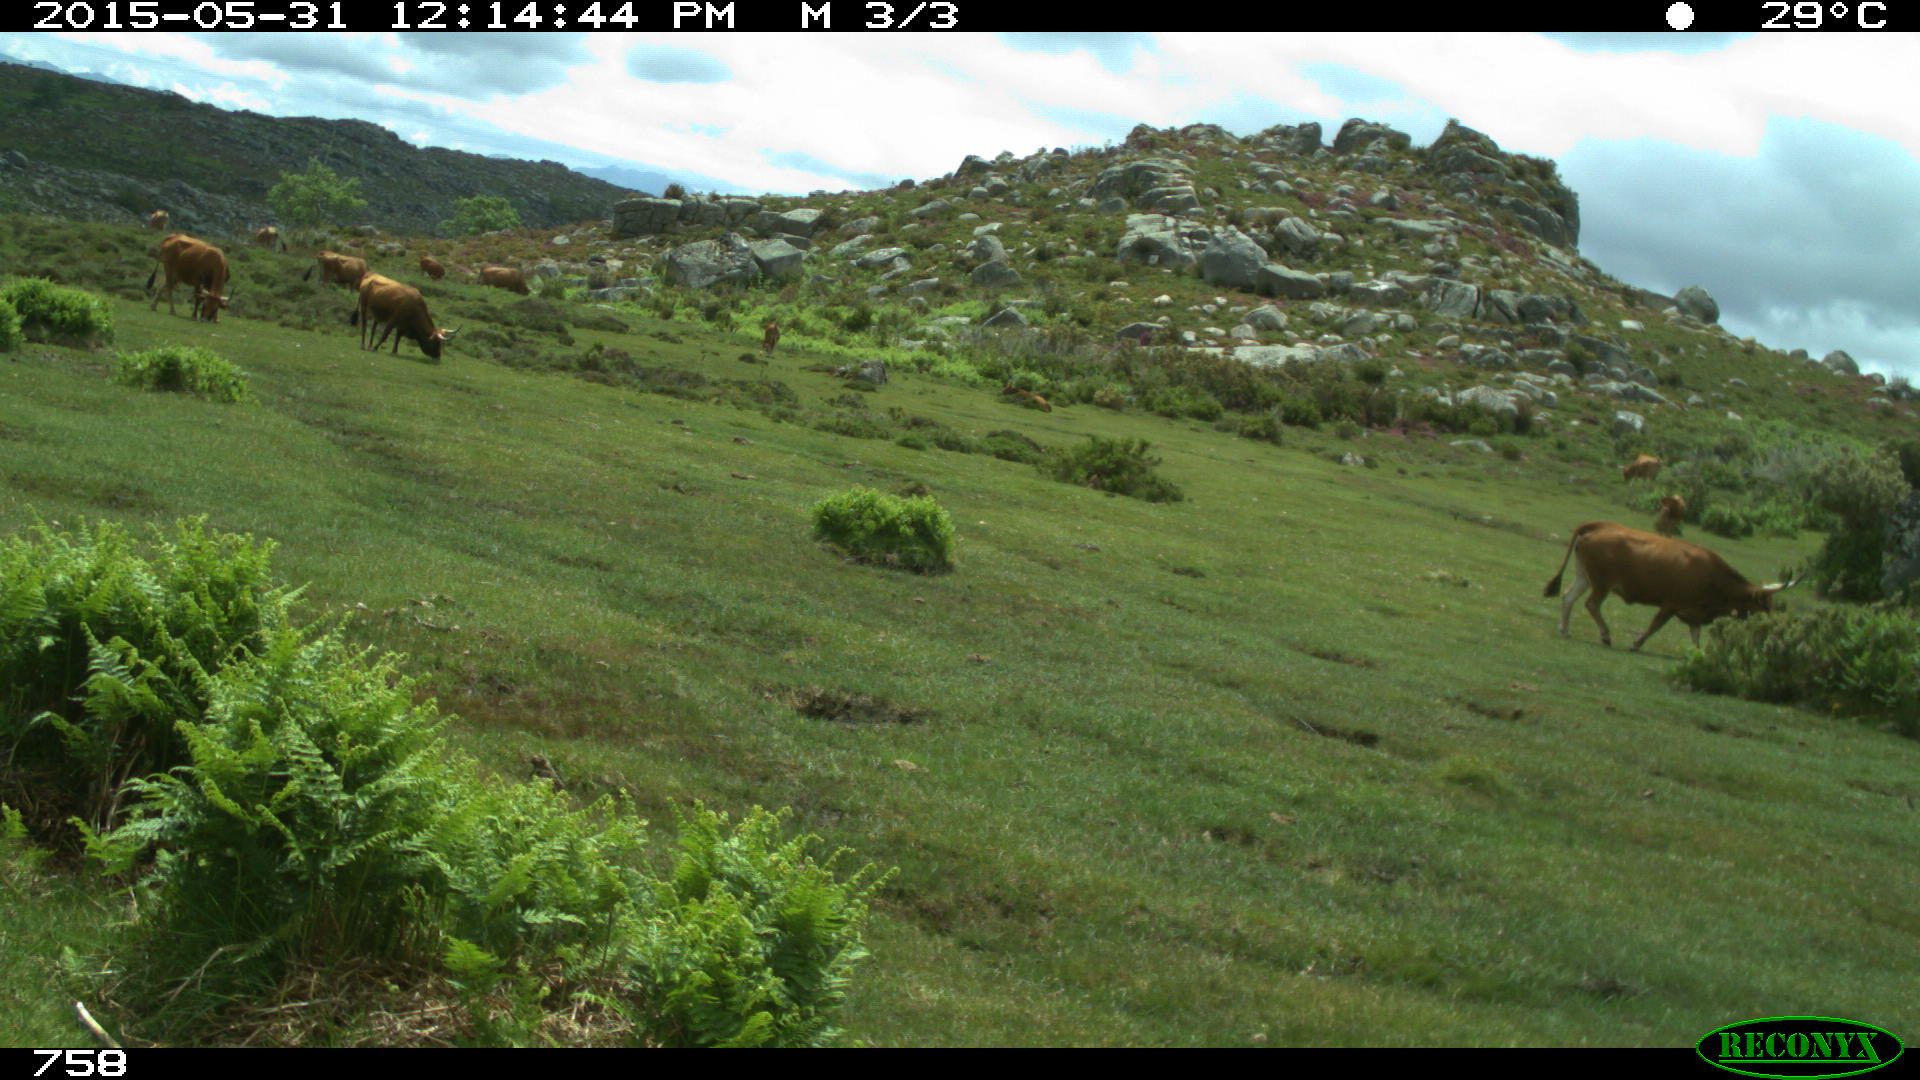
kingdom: Animalia
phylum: Chordata
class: Mammalia
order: Artiodactyla
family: Bovidae
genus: Bos
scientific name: Bos taurus
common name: Domesticated cattle
